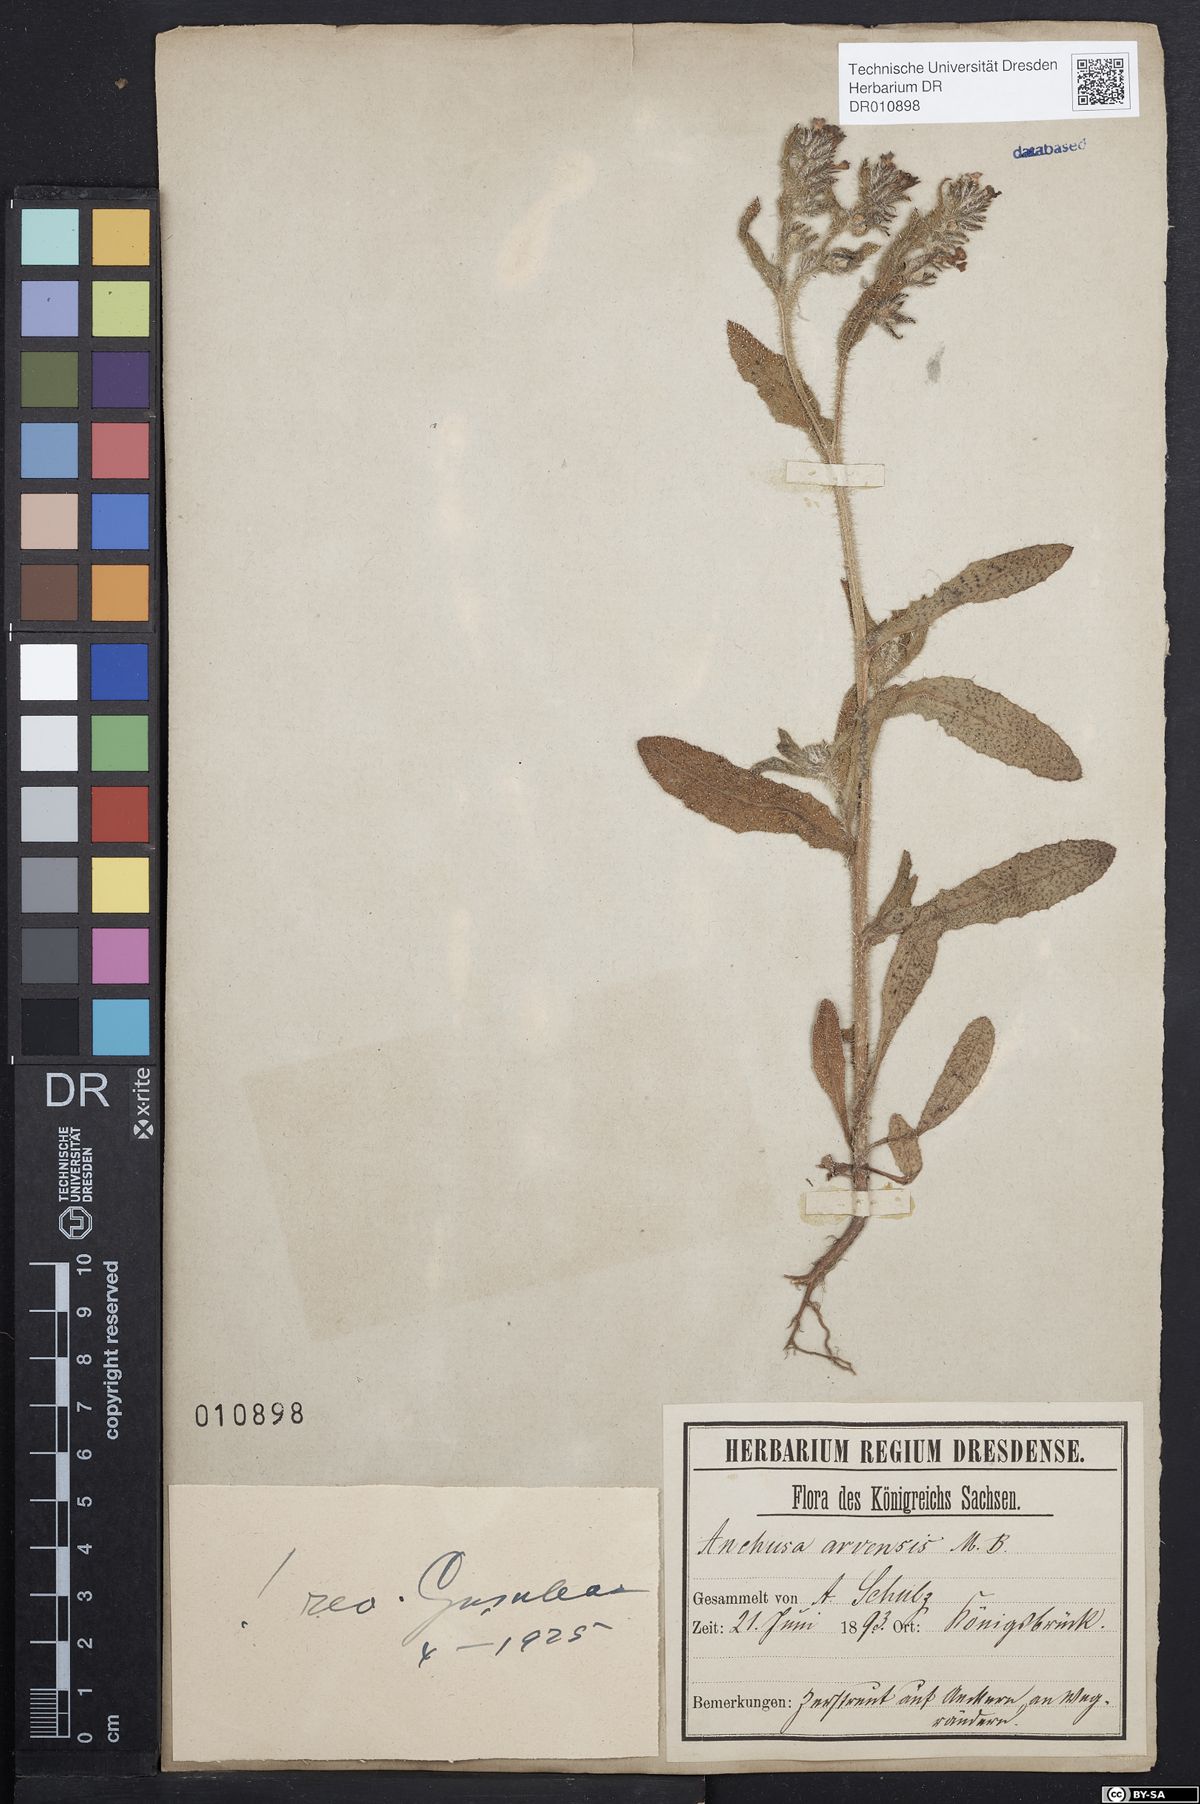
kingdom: Plantae
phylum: Tracheophyta
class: Magnoliopsida
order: Boraginales
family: Boraginaceae
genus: Lycopsis
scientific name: Lycopsis arvensis
